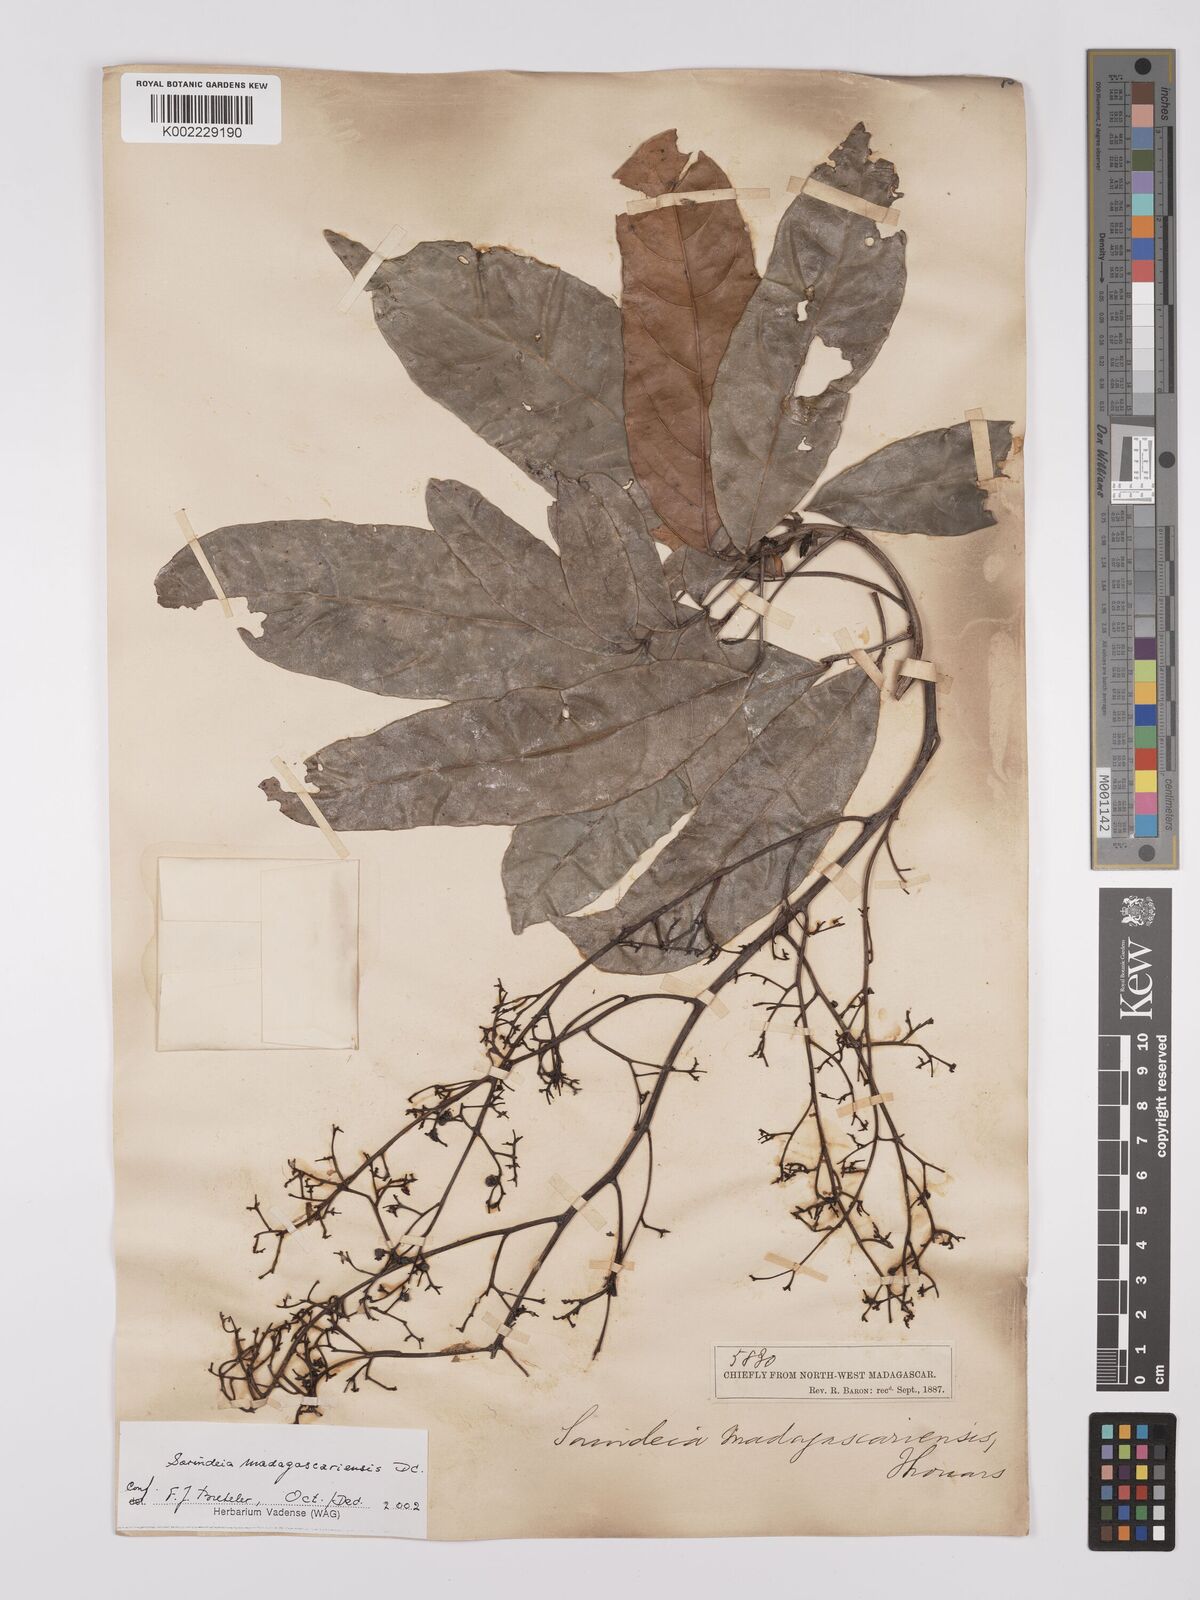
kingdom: Plantae
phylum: Tracheophyta
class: Magnoliopsida
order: Sapindales
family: Anacardiaceae
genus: Sorindeia
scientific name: Sorindeia madagascariensis
